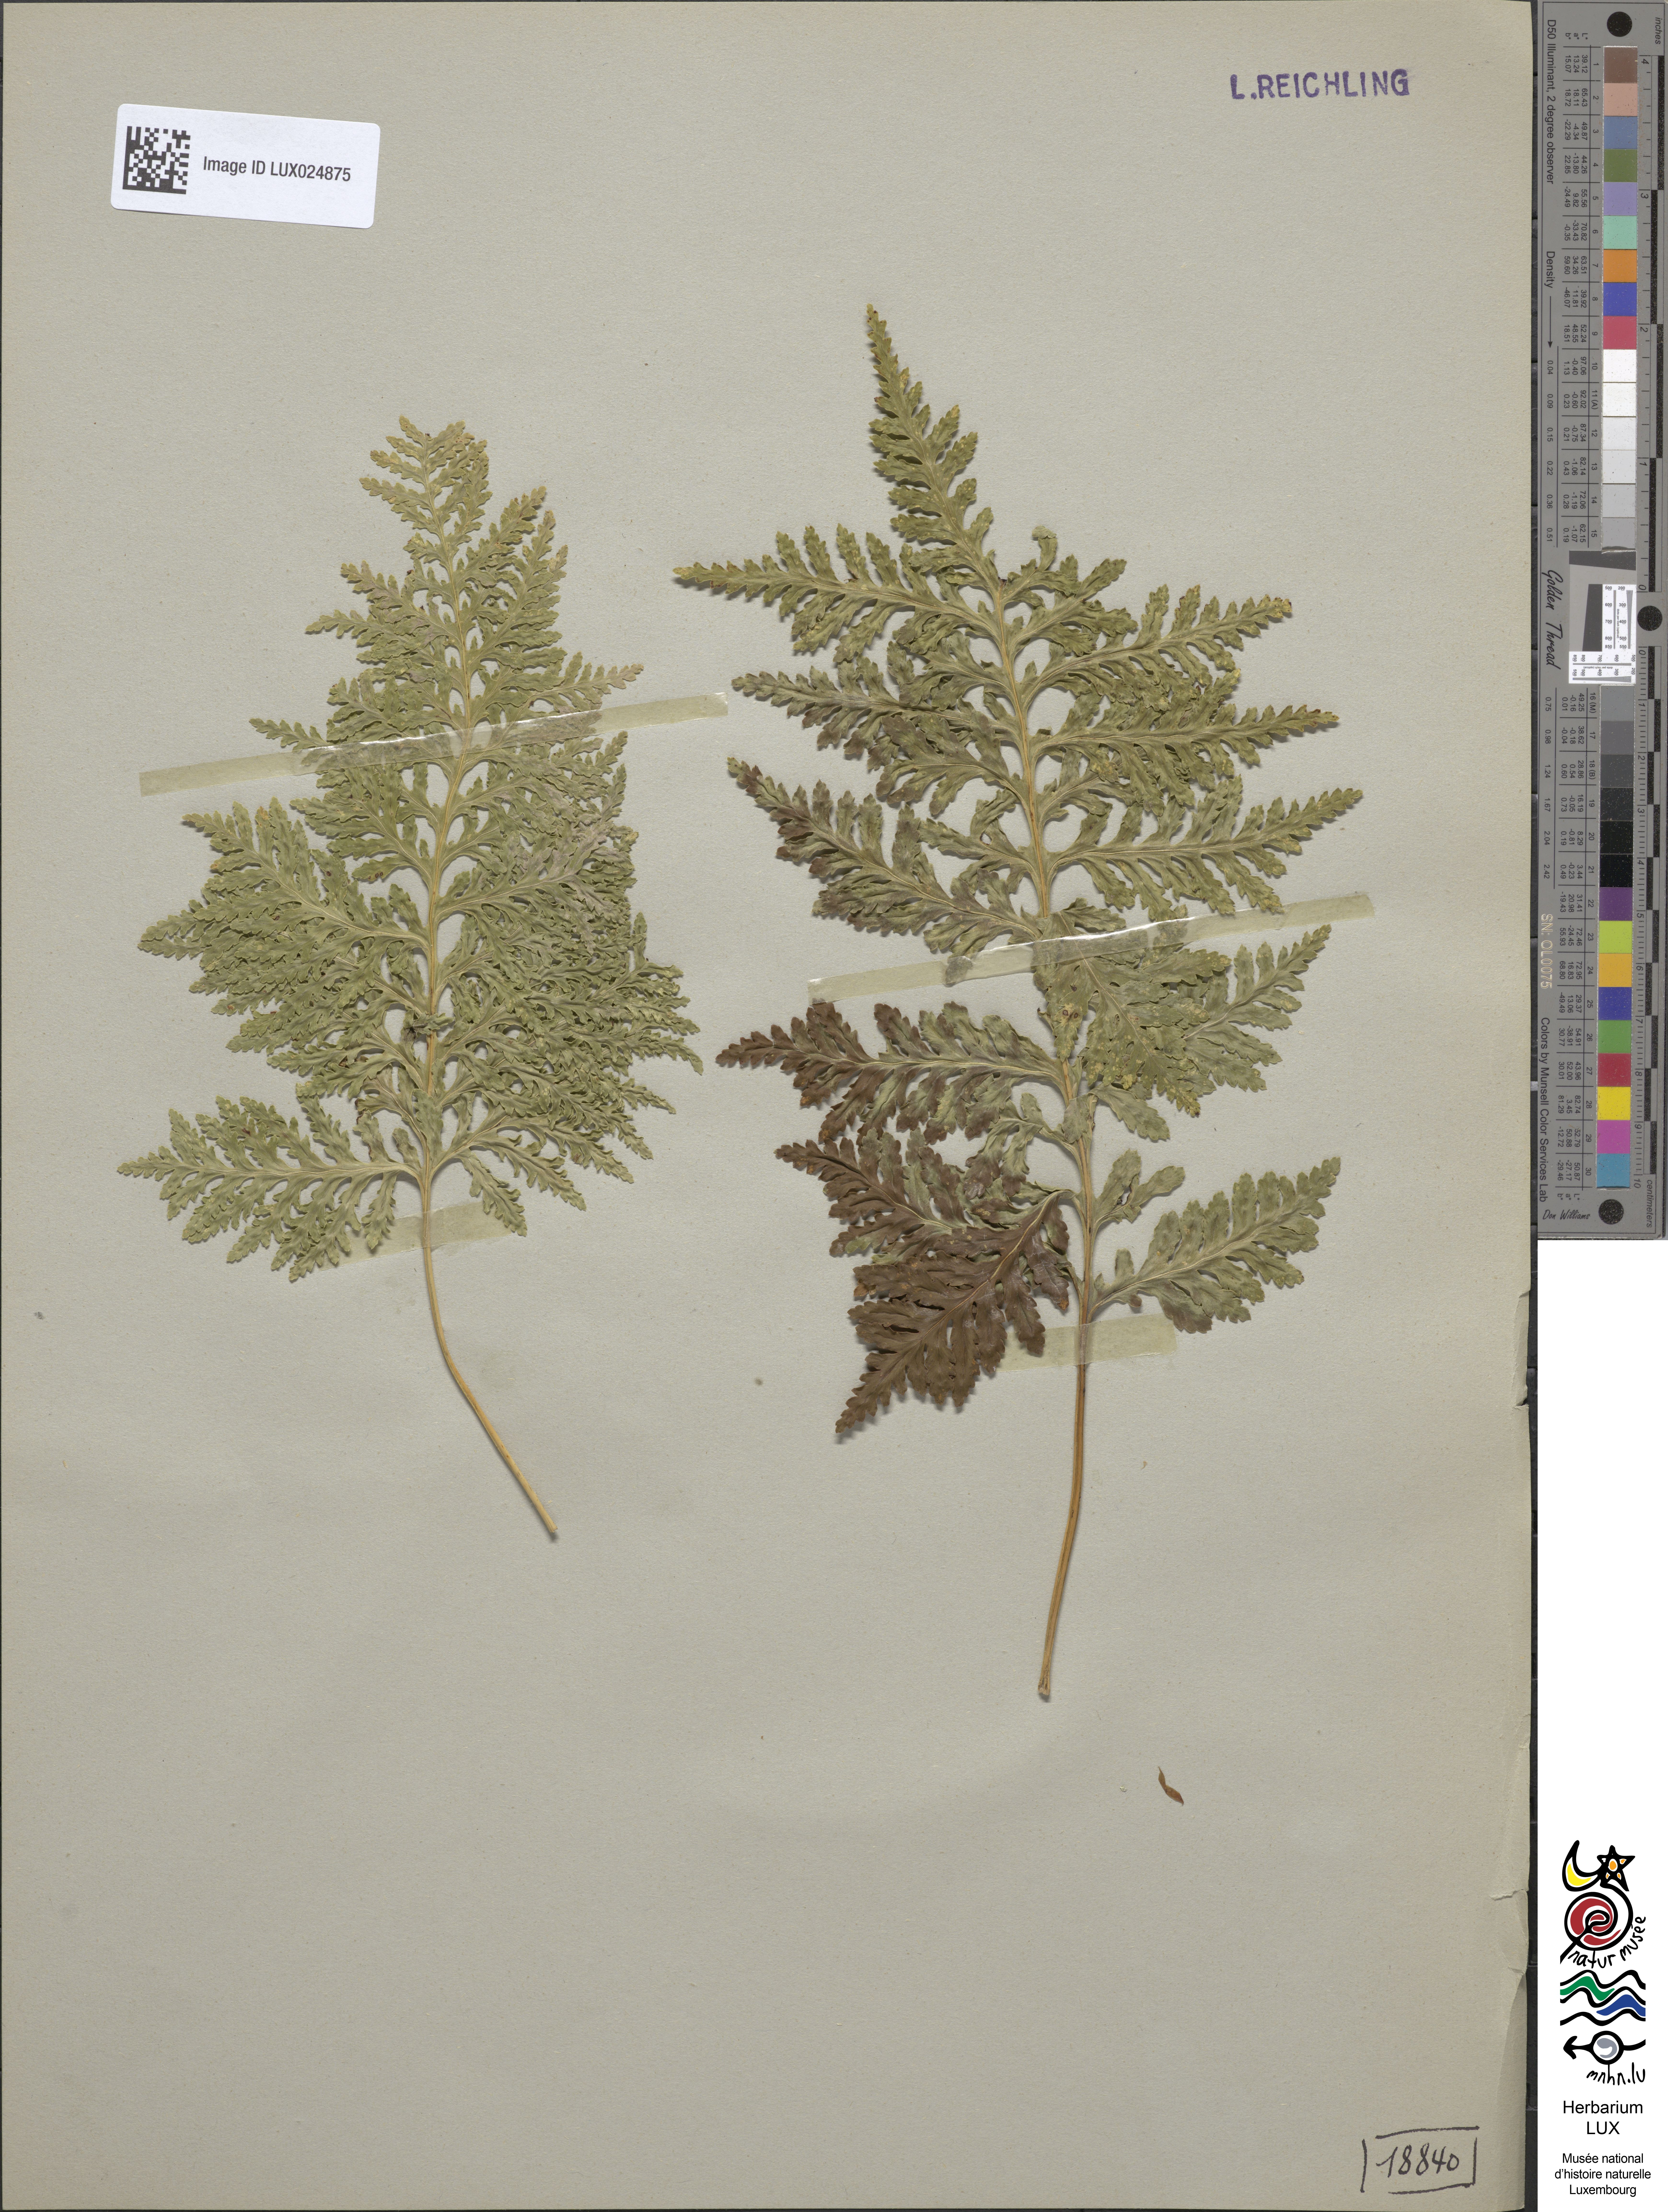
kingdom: Plantae
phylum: Tracheophyta
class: Polypodiopsida
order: Polypodiales
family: Polypodiaceae
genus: Polypodium
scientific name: Polypodium vulgare
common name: Common polypody
